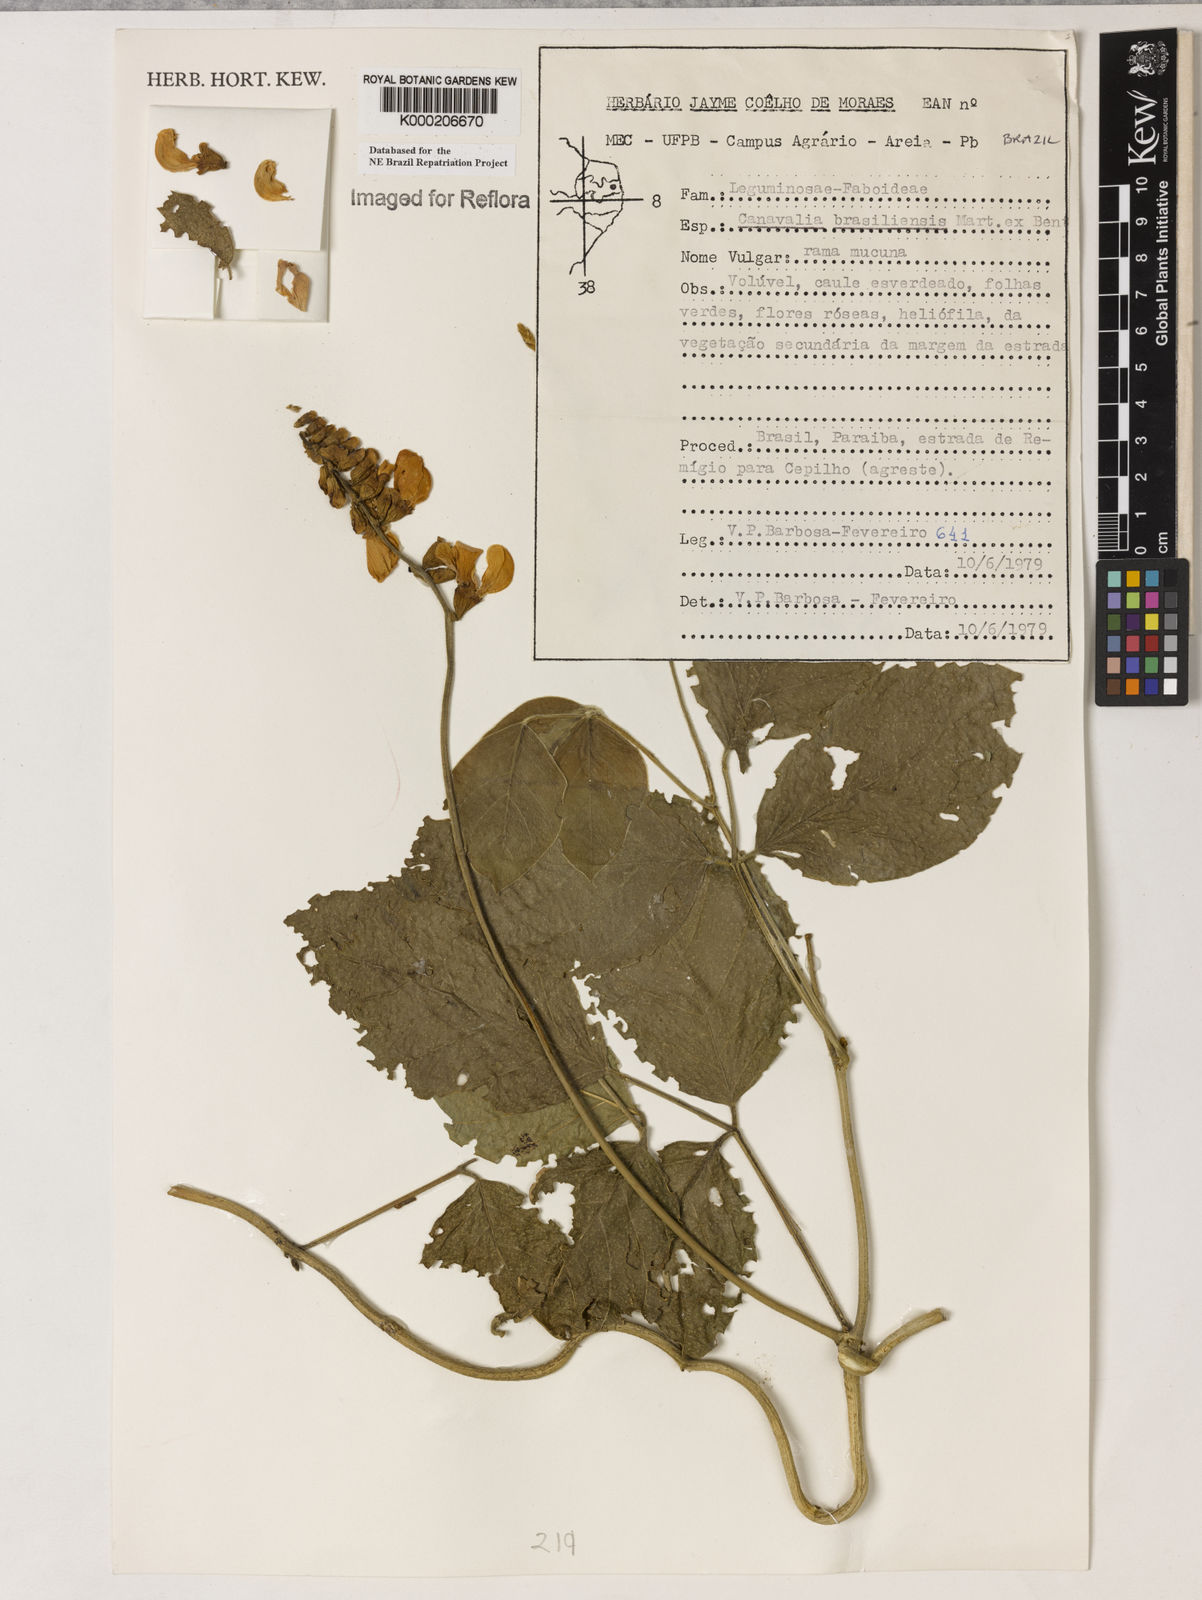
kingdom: Plantae
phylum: Tracheophyta
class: Magnoliopsida
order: Fabales
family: Fabaceae
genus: Canavalia
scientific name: Canavalia brasiliensis
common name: Barbicou-bean
